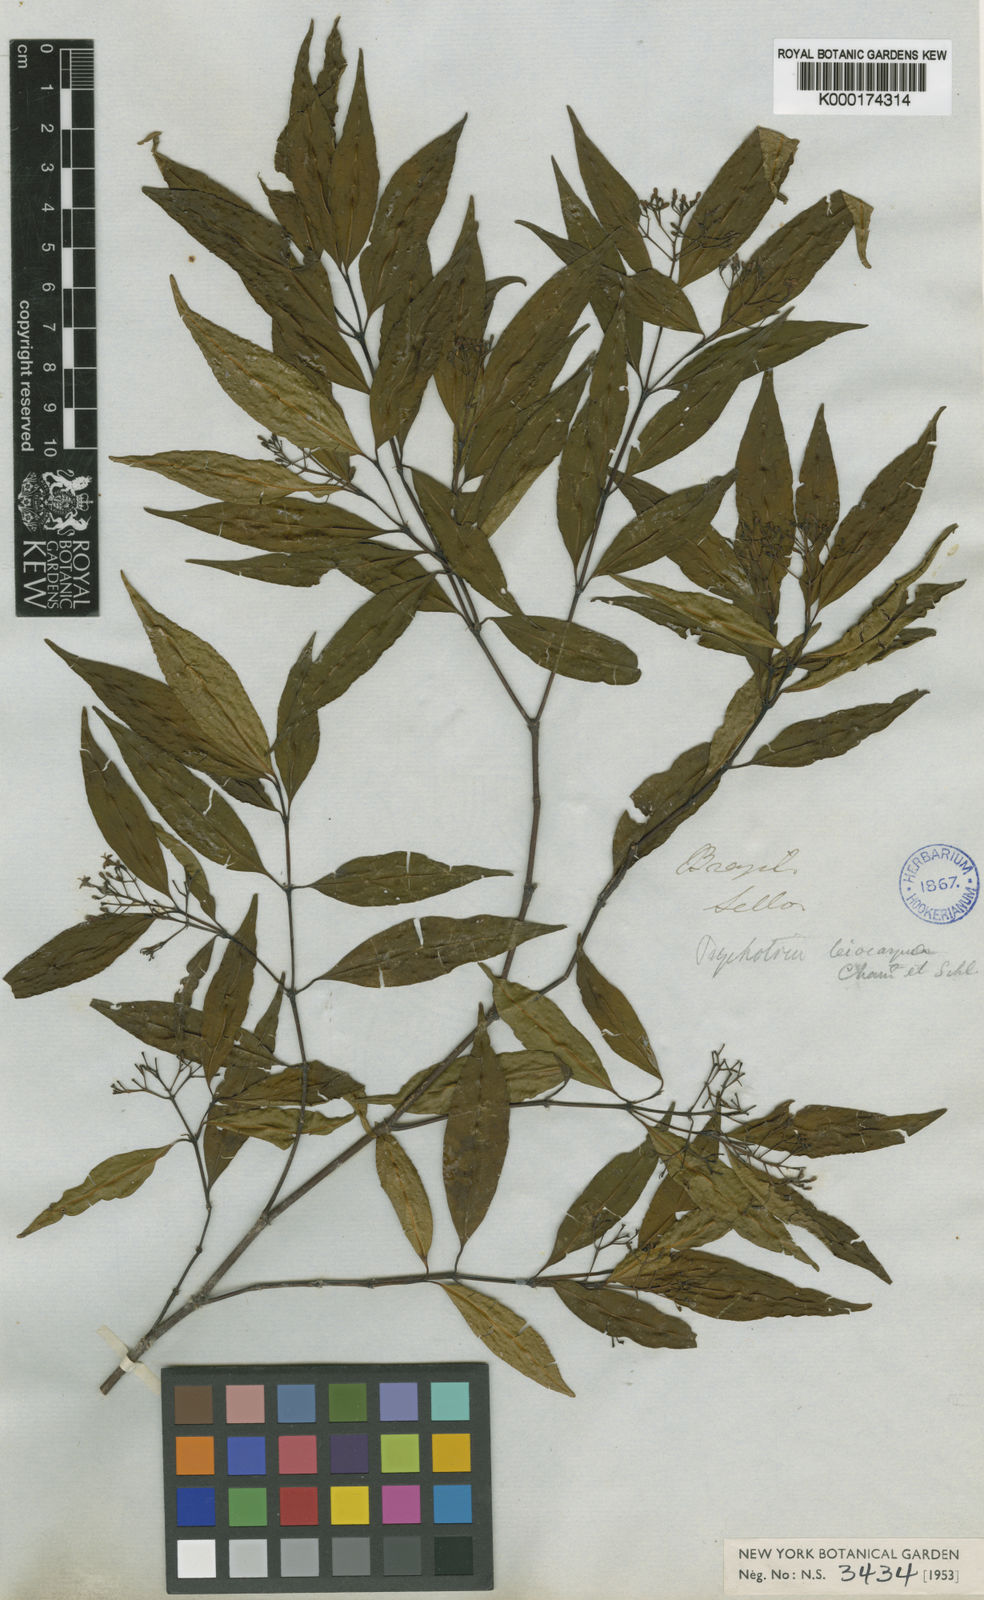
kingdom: Plantae
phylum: Tracheophyta
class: Magnoliopsida
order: Gentianales
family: Rubiaceae
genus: Psychotria
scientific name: Psychotria leiocarpa
